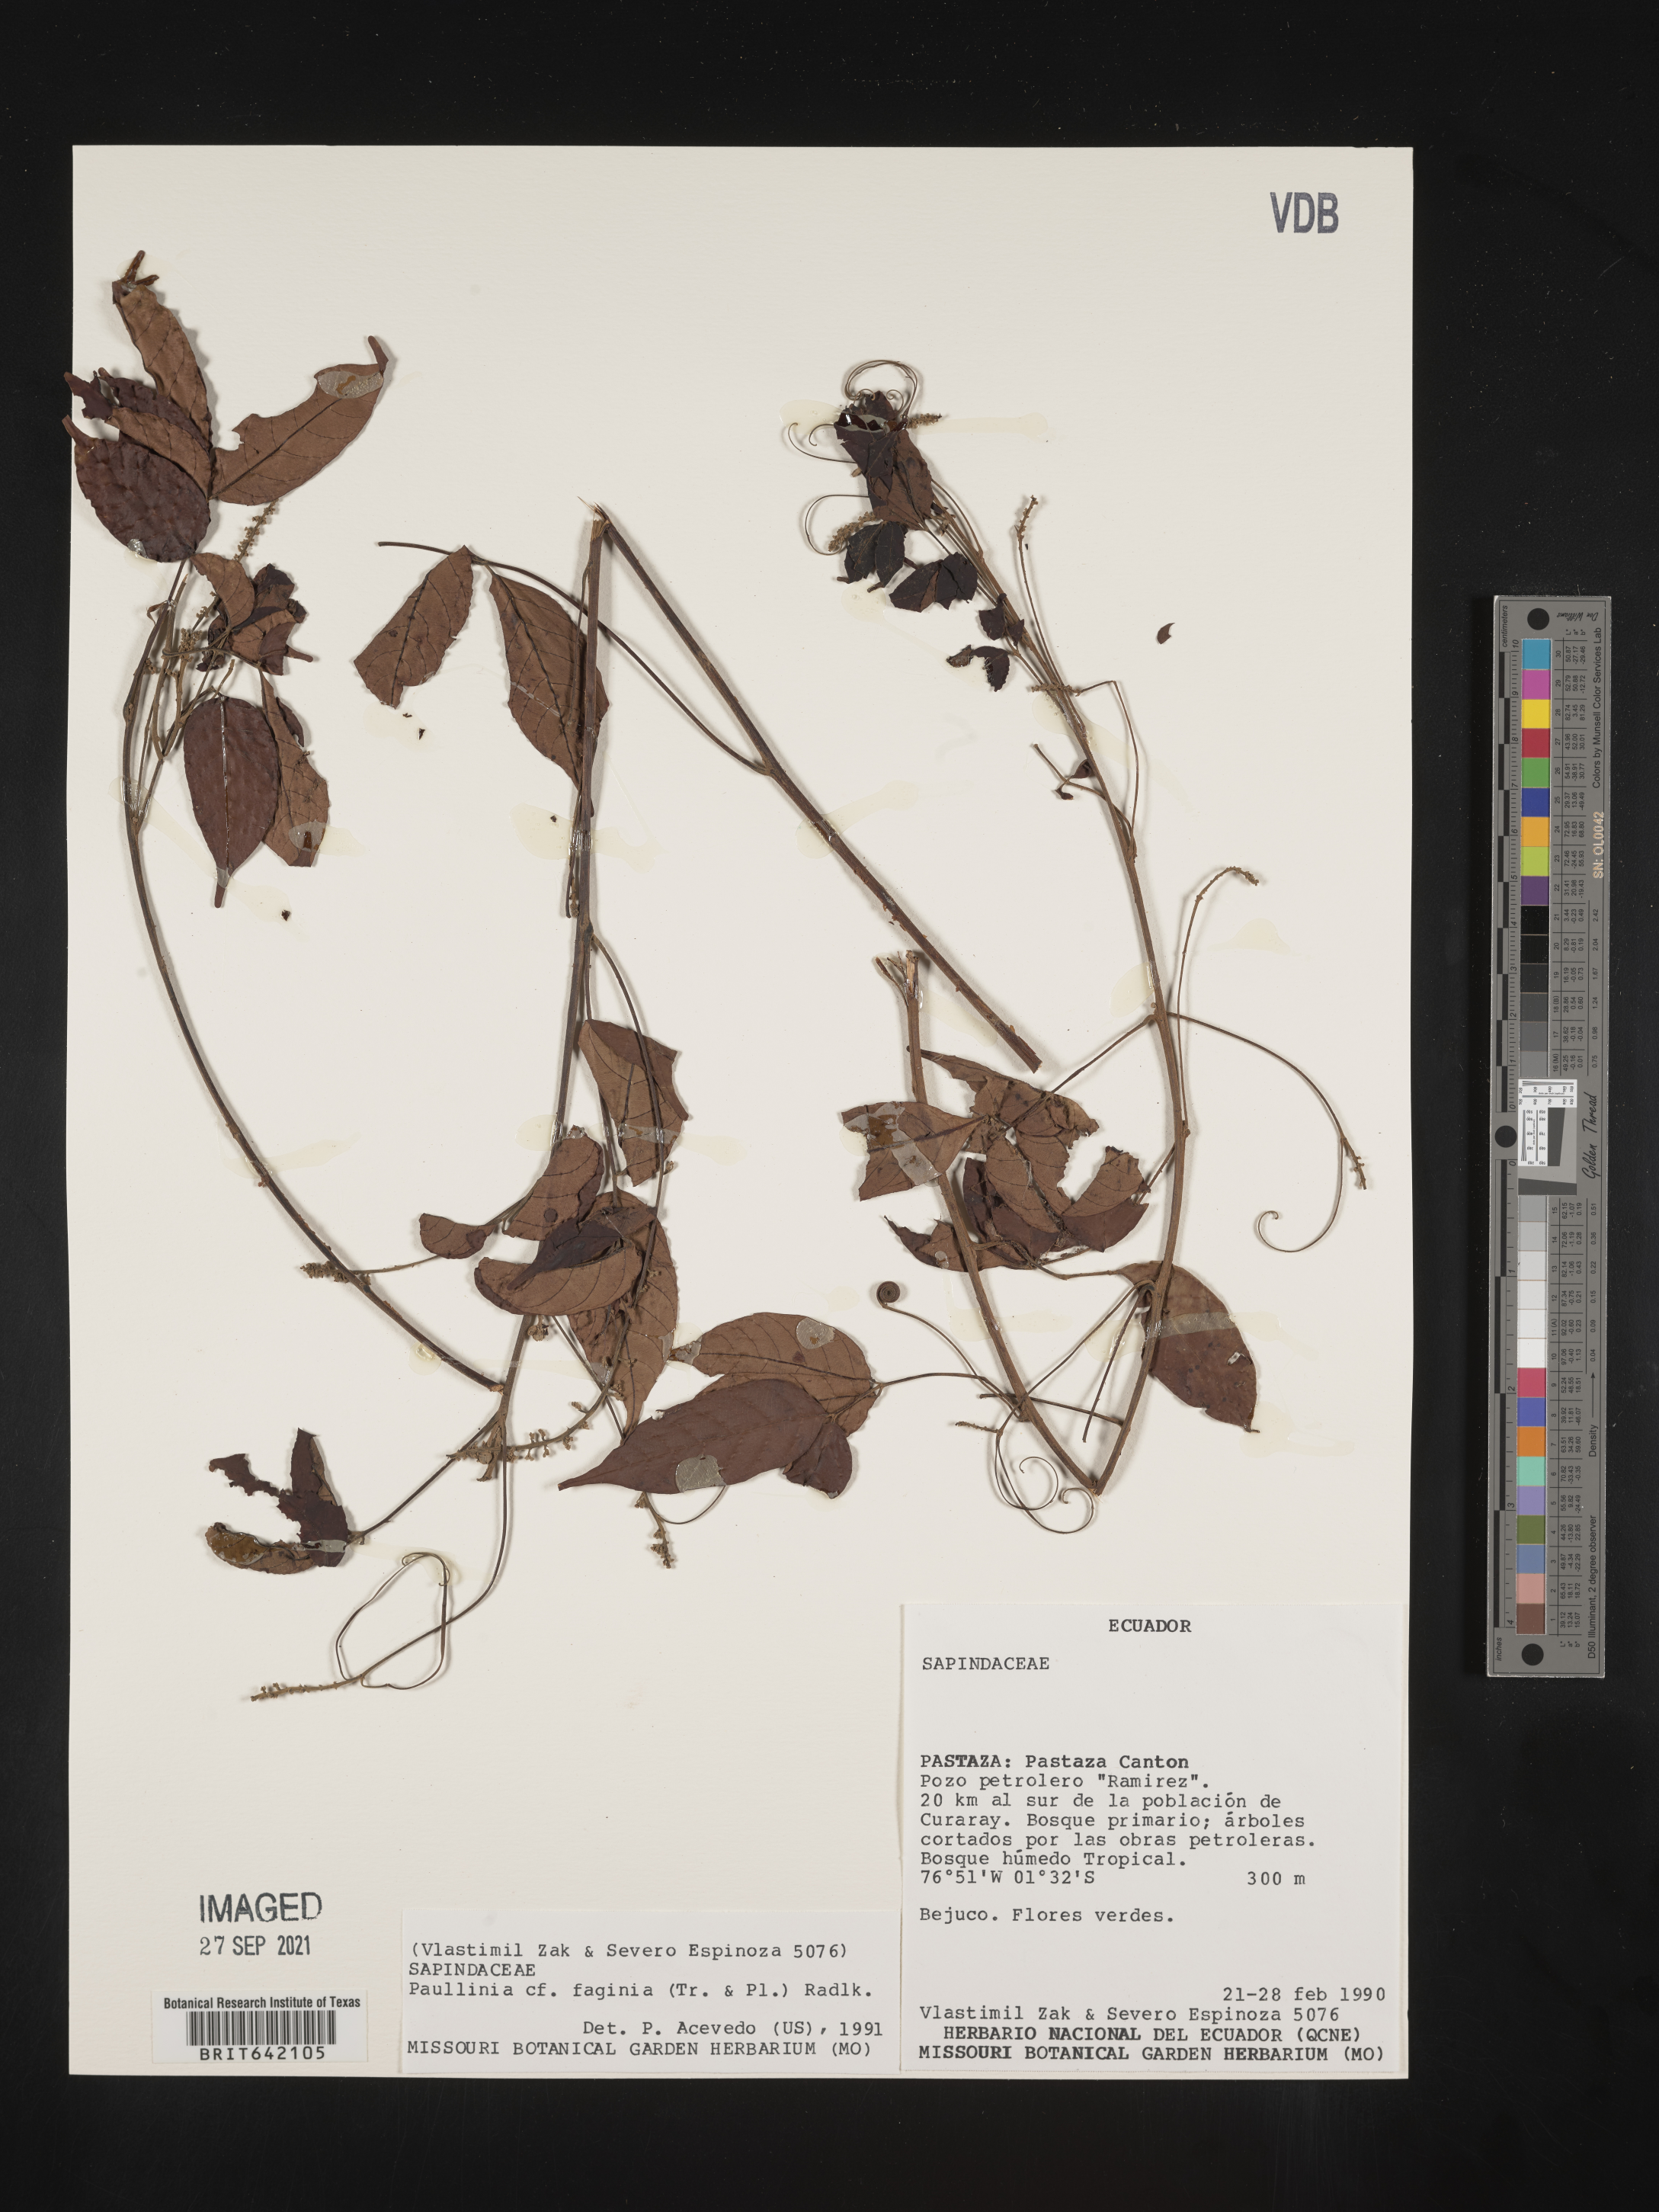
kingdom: Plantae
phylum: Tracheophyta
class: Magnoliopsida
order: Sapindales
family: Sapindaceae
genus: Paullinia
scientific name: Paullinia
